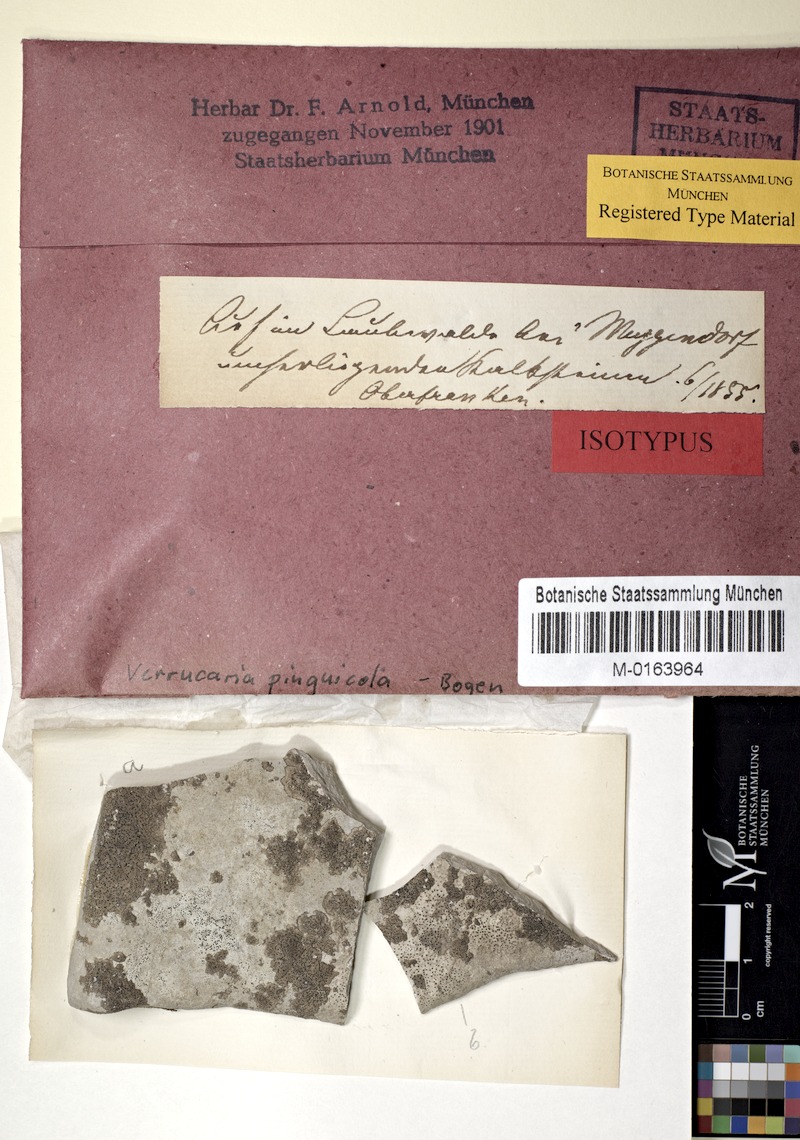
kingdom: Fungi
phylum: Ascomycota
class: Eurotiomycetes
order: Verrucariales
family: Verrucariaceae
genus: Verrucaria
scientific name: Verrucaria pinguicula
